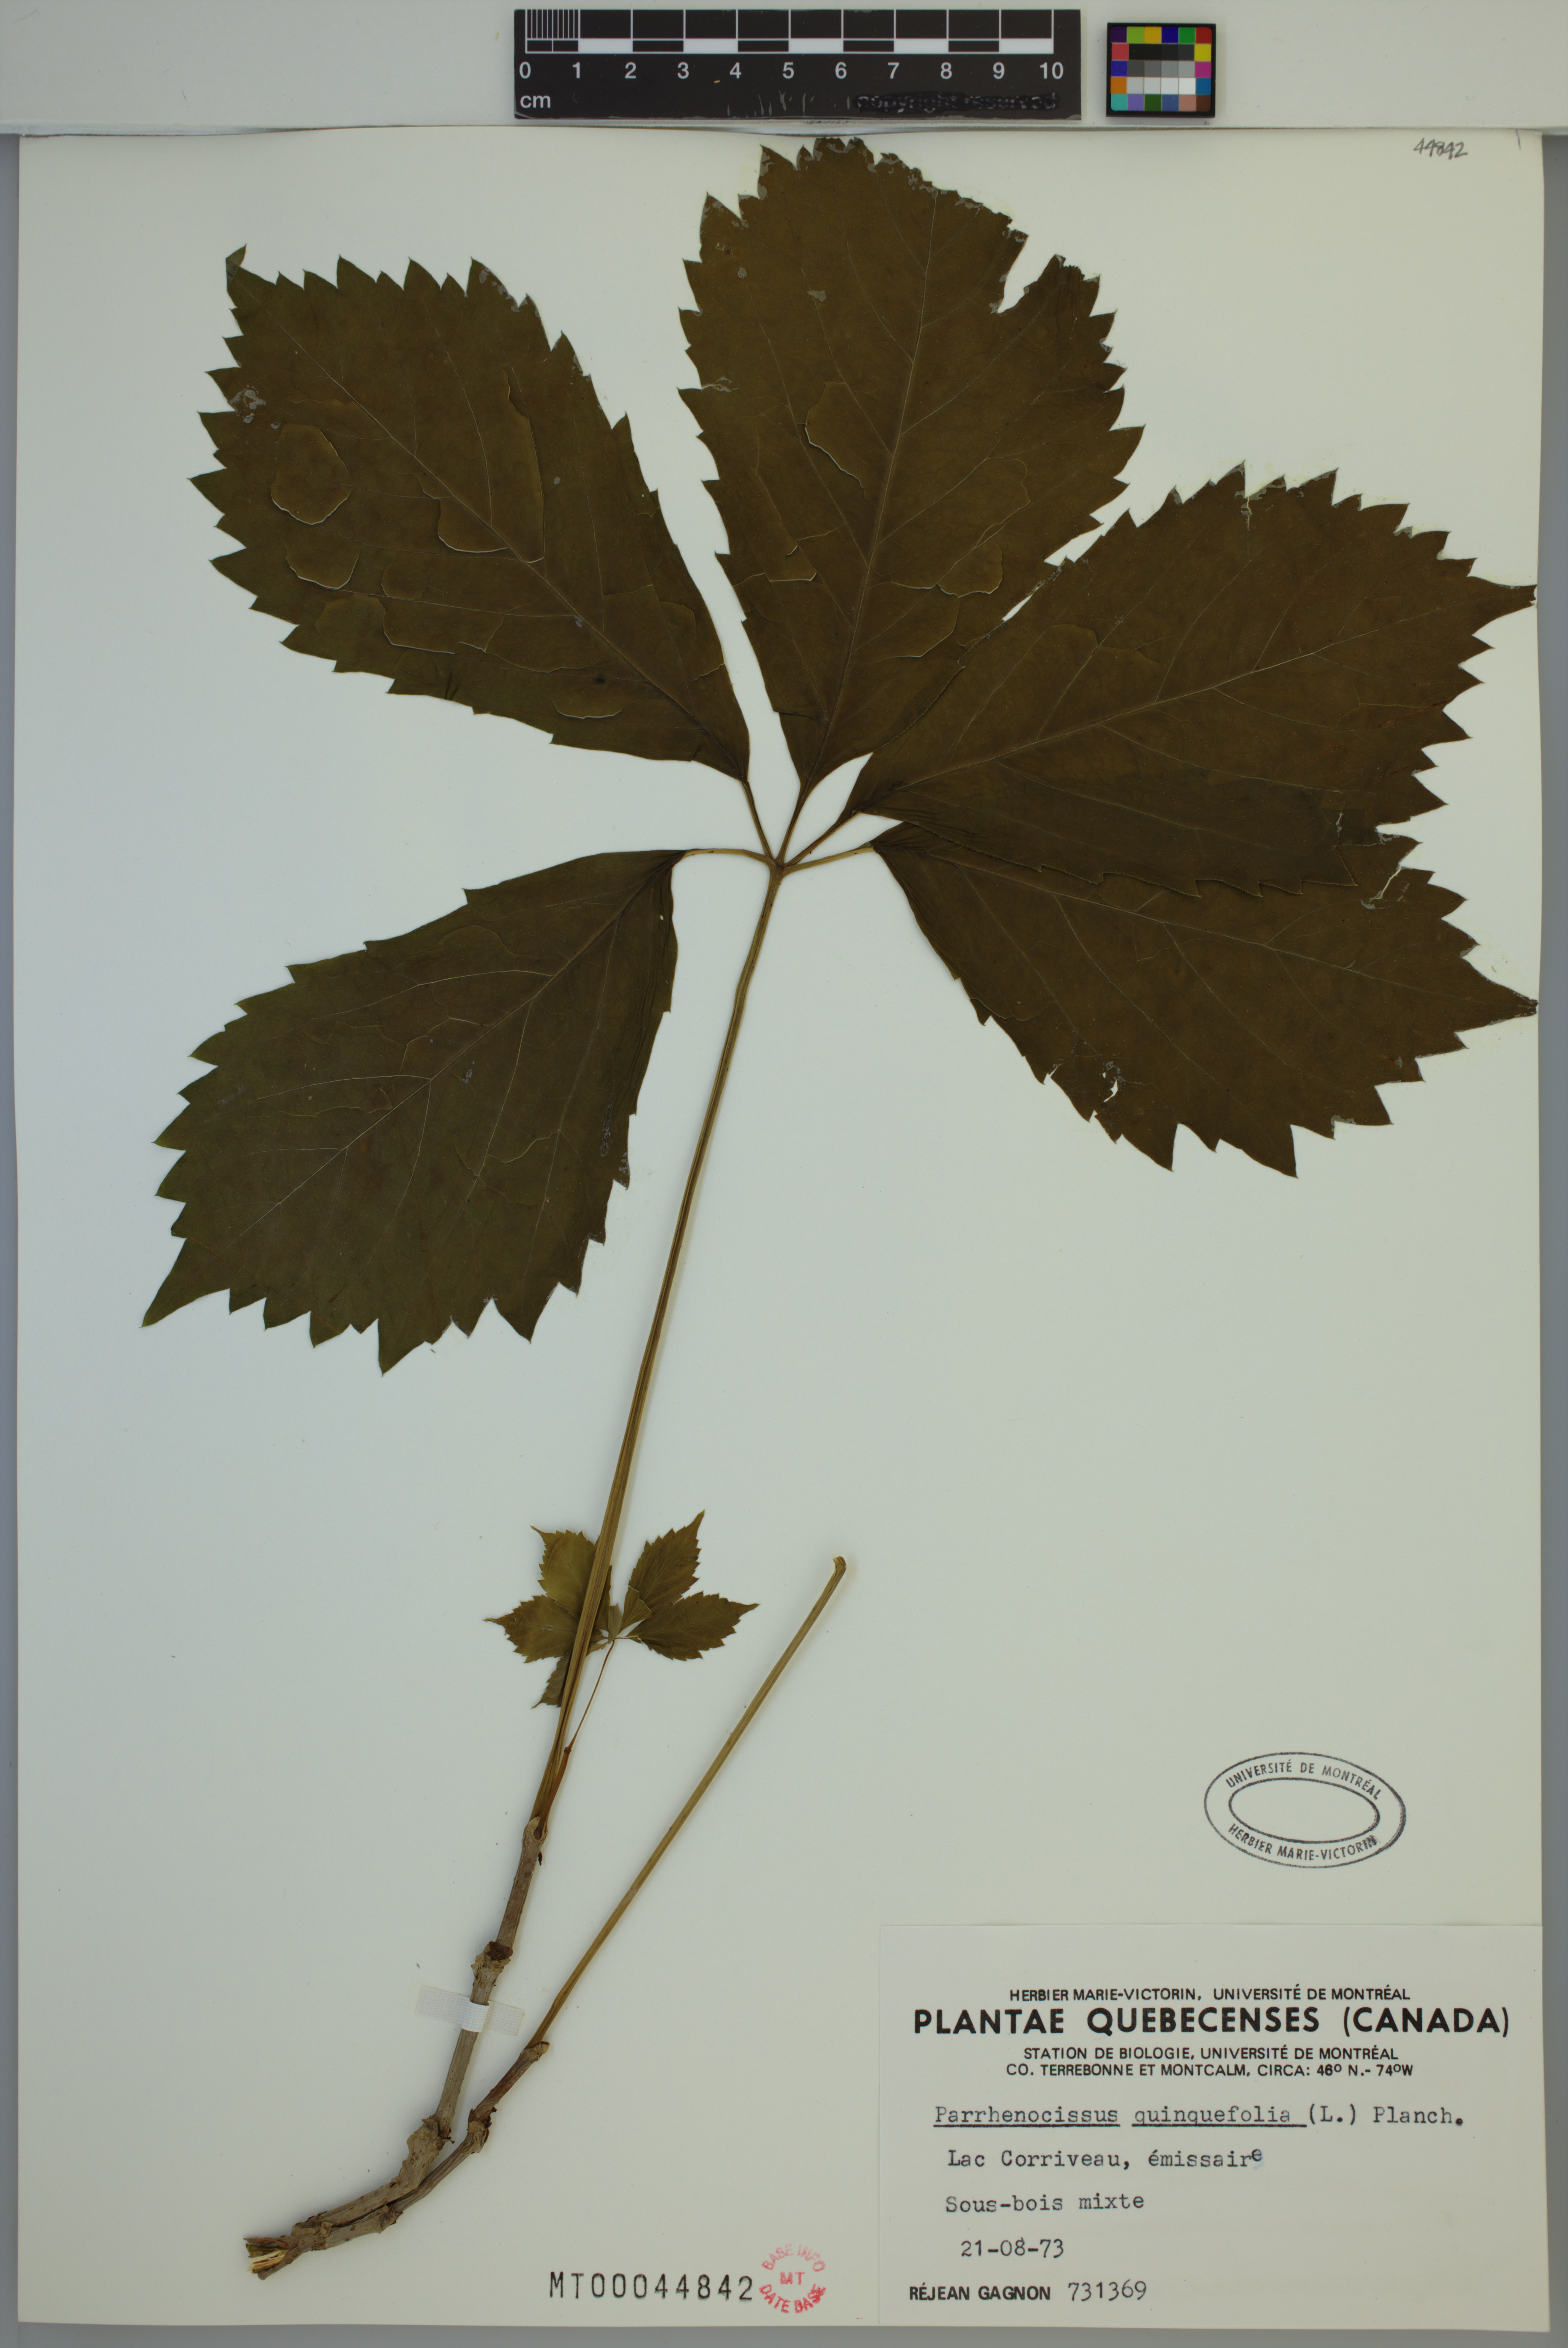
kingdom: Plantae
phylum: Tracheophyta
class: Magnoliopsida
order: Vitales
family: Vitaceae
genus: Parthenocissus
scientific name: Parthenocissus quinquefolia
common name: Virginia-creeper
